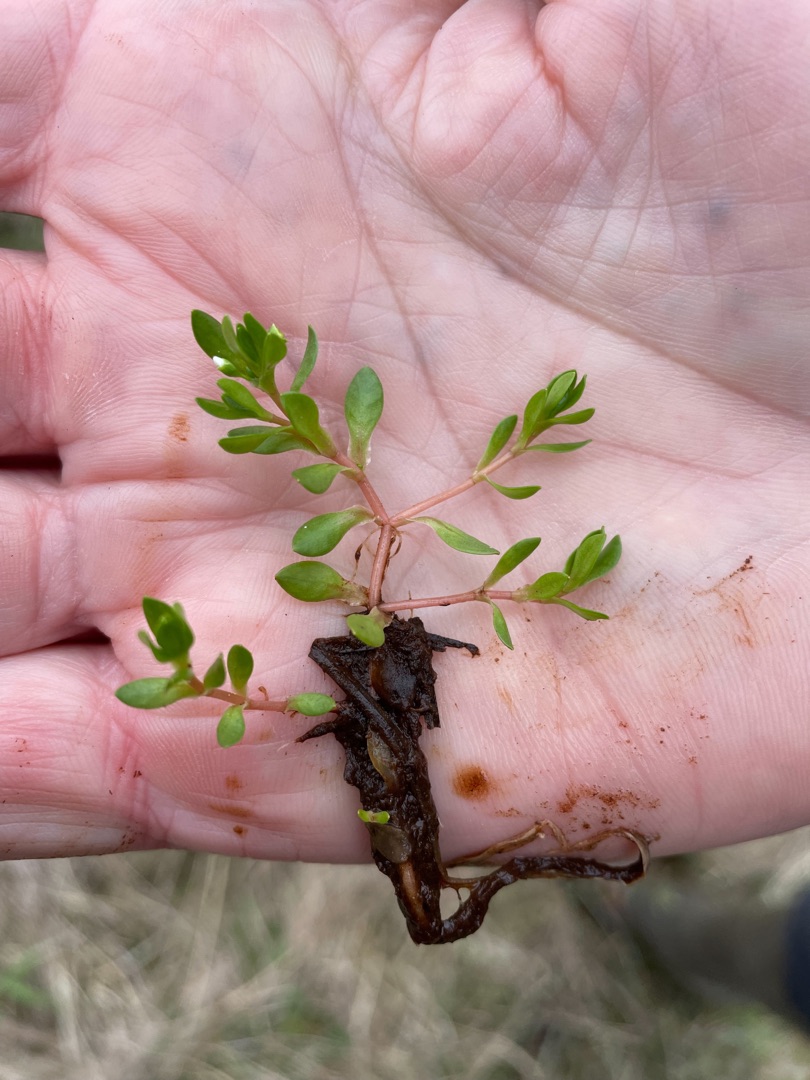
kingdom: Plantae
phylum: Tracheophyta
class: Magnoliopsida
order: Caryophyllales
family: Montiaceae
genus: Montia
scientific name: Montia fontana
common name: Stor vandarve
